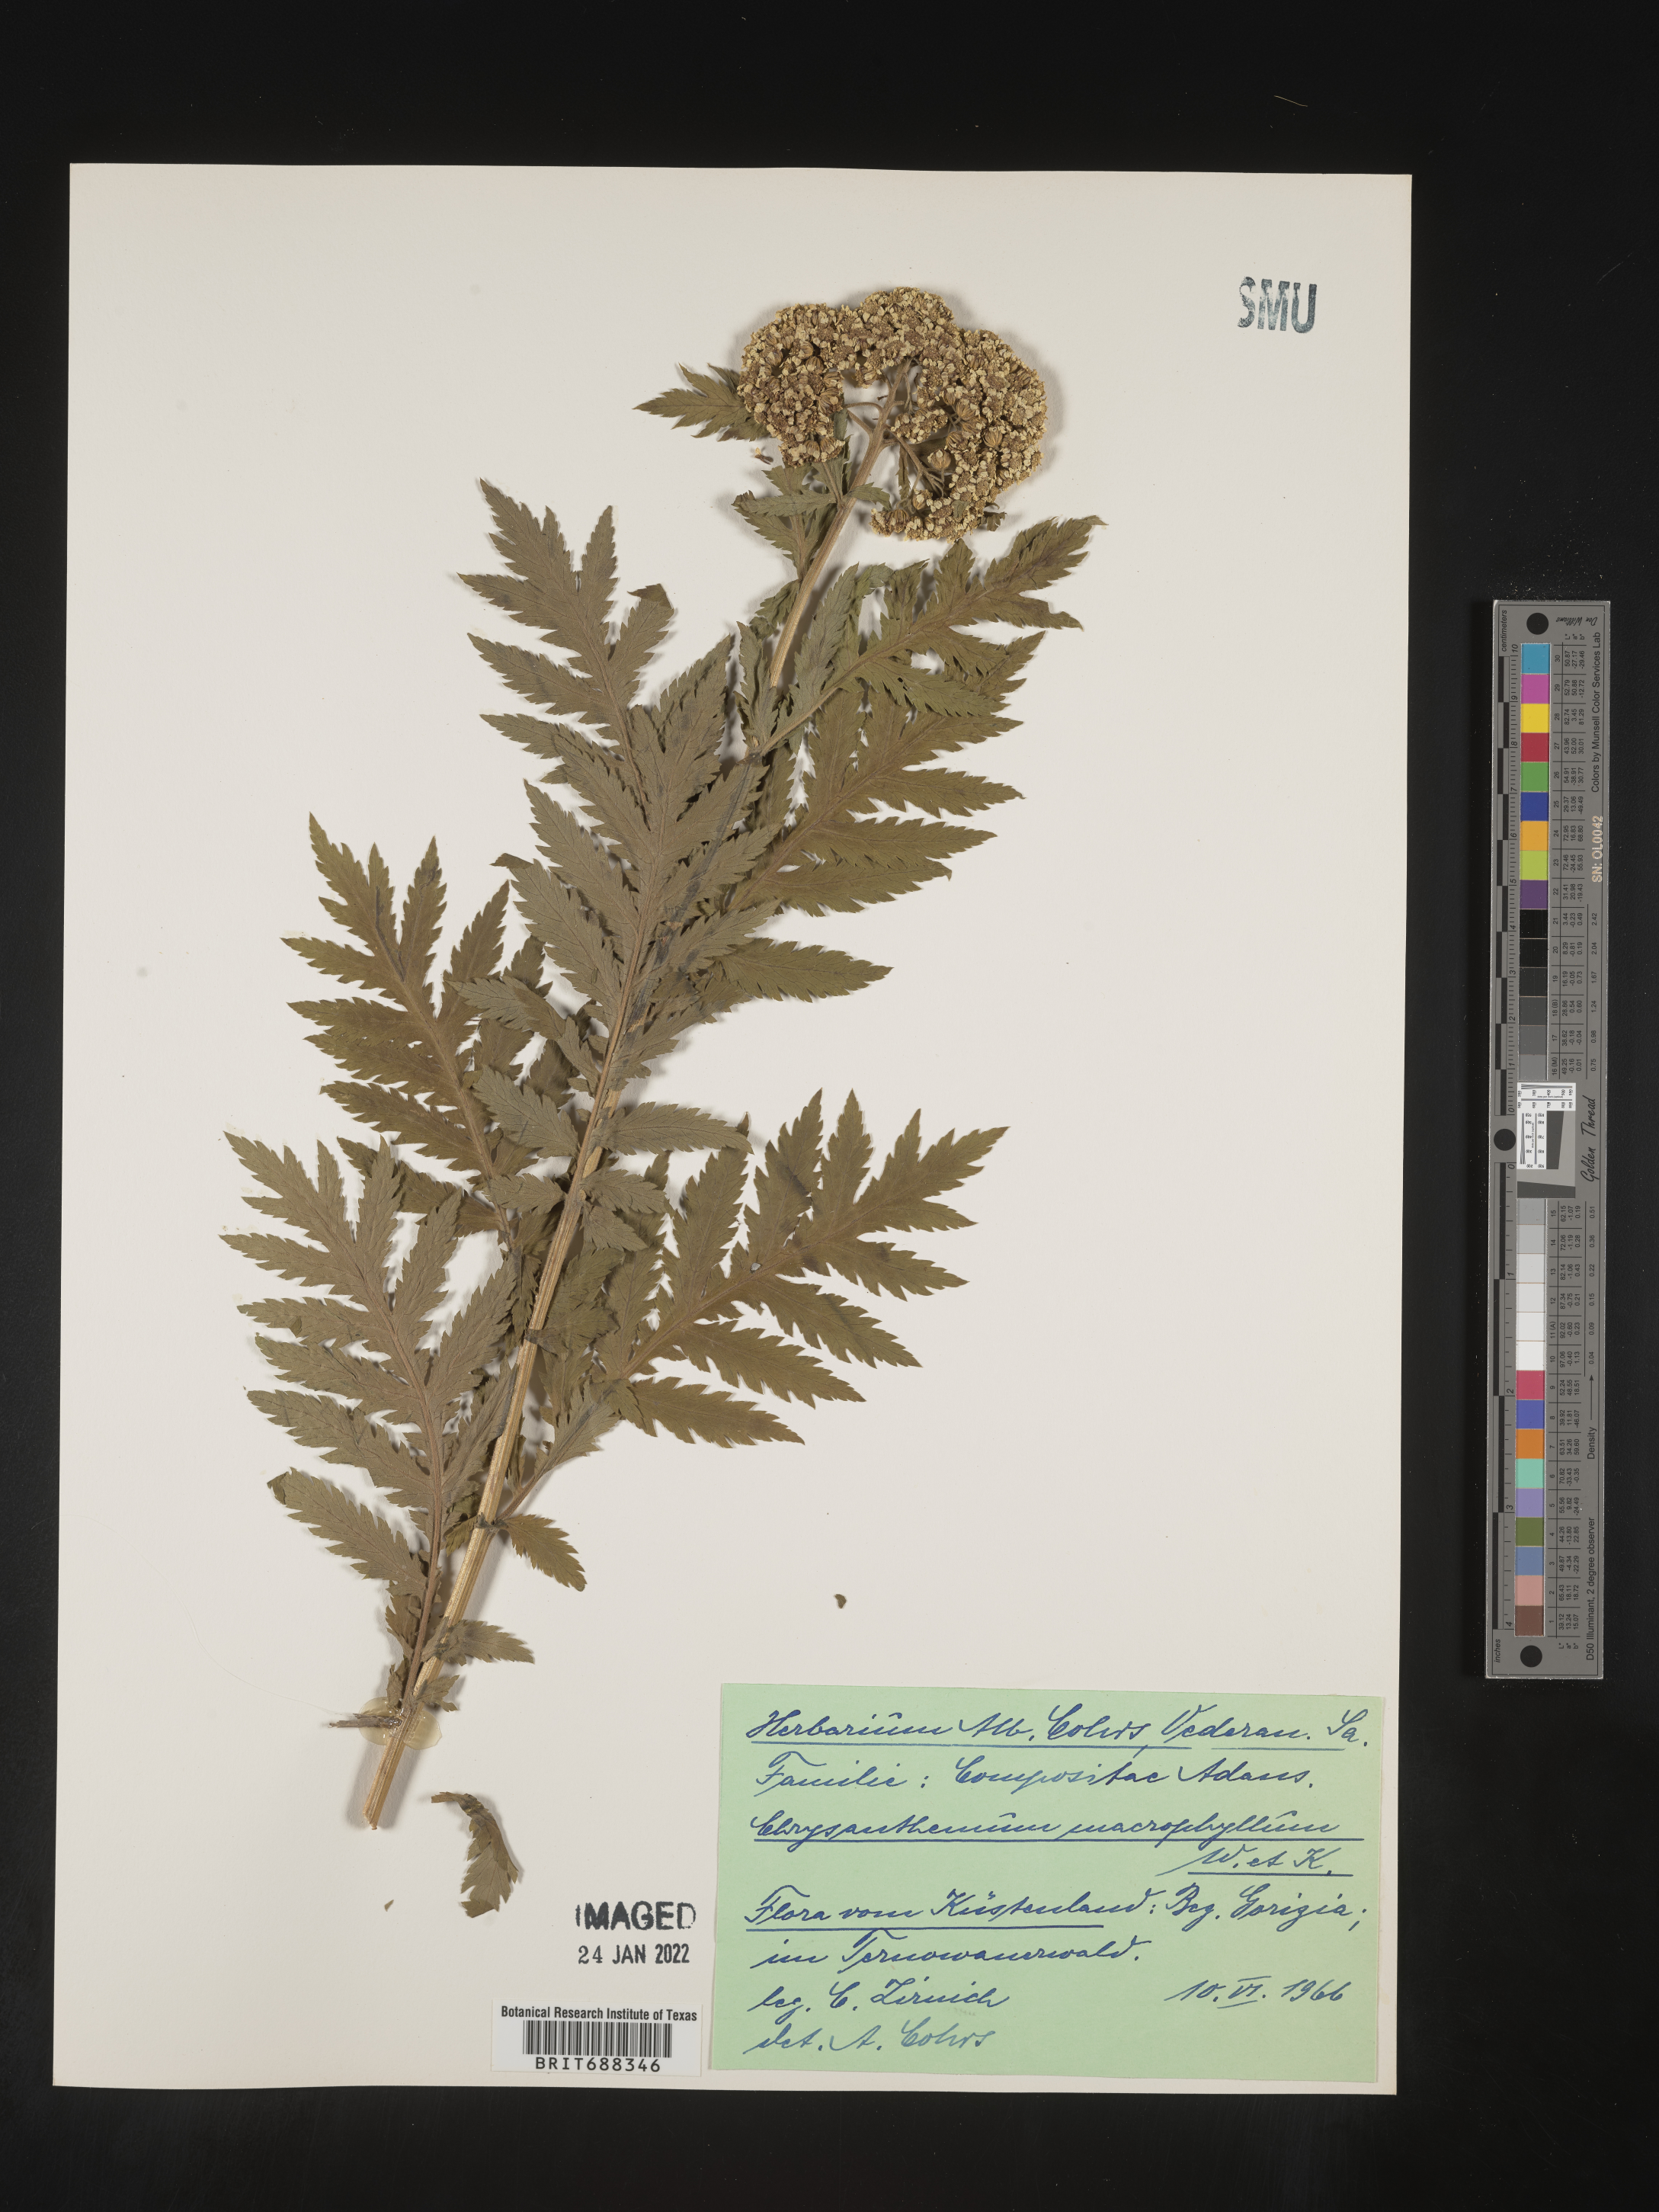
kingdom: Plantae
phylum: Tracheophyta
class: Magnoliopsida
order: Asterales
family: Asteraceae
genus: Chrysanthemum
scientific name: Chrysanthemum
